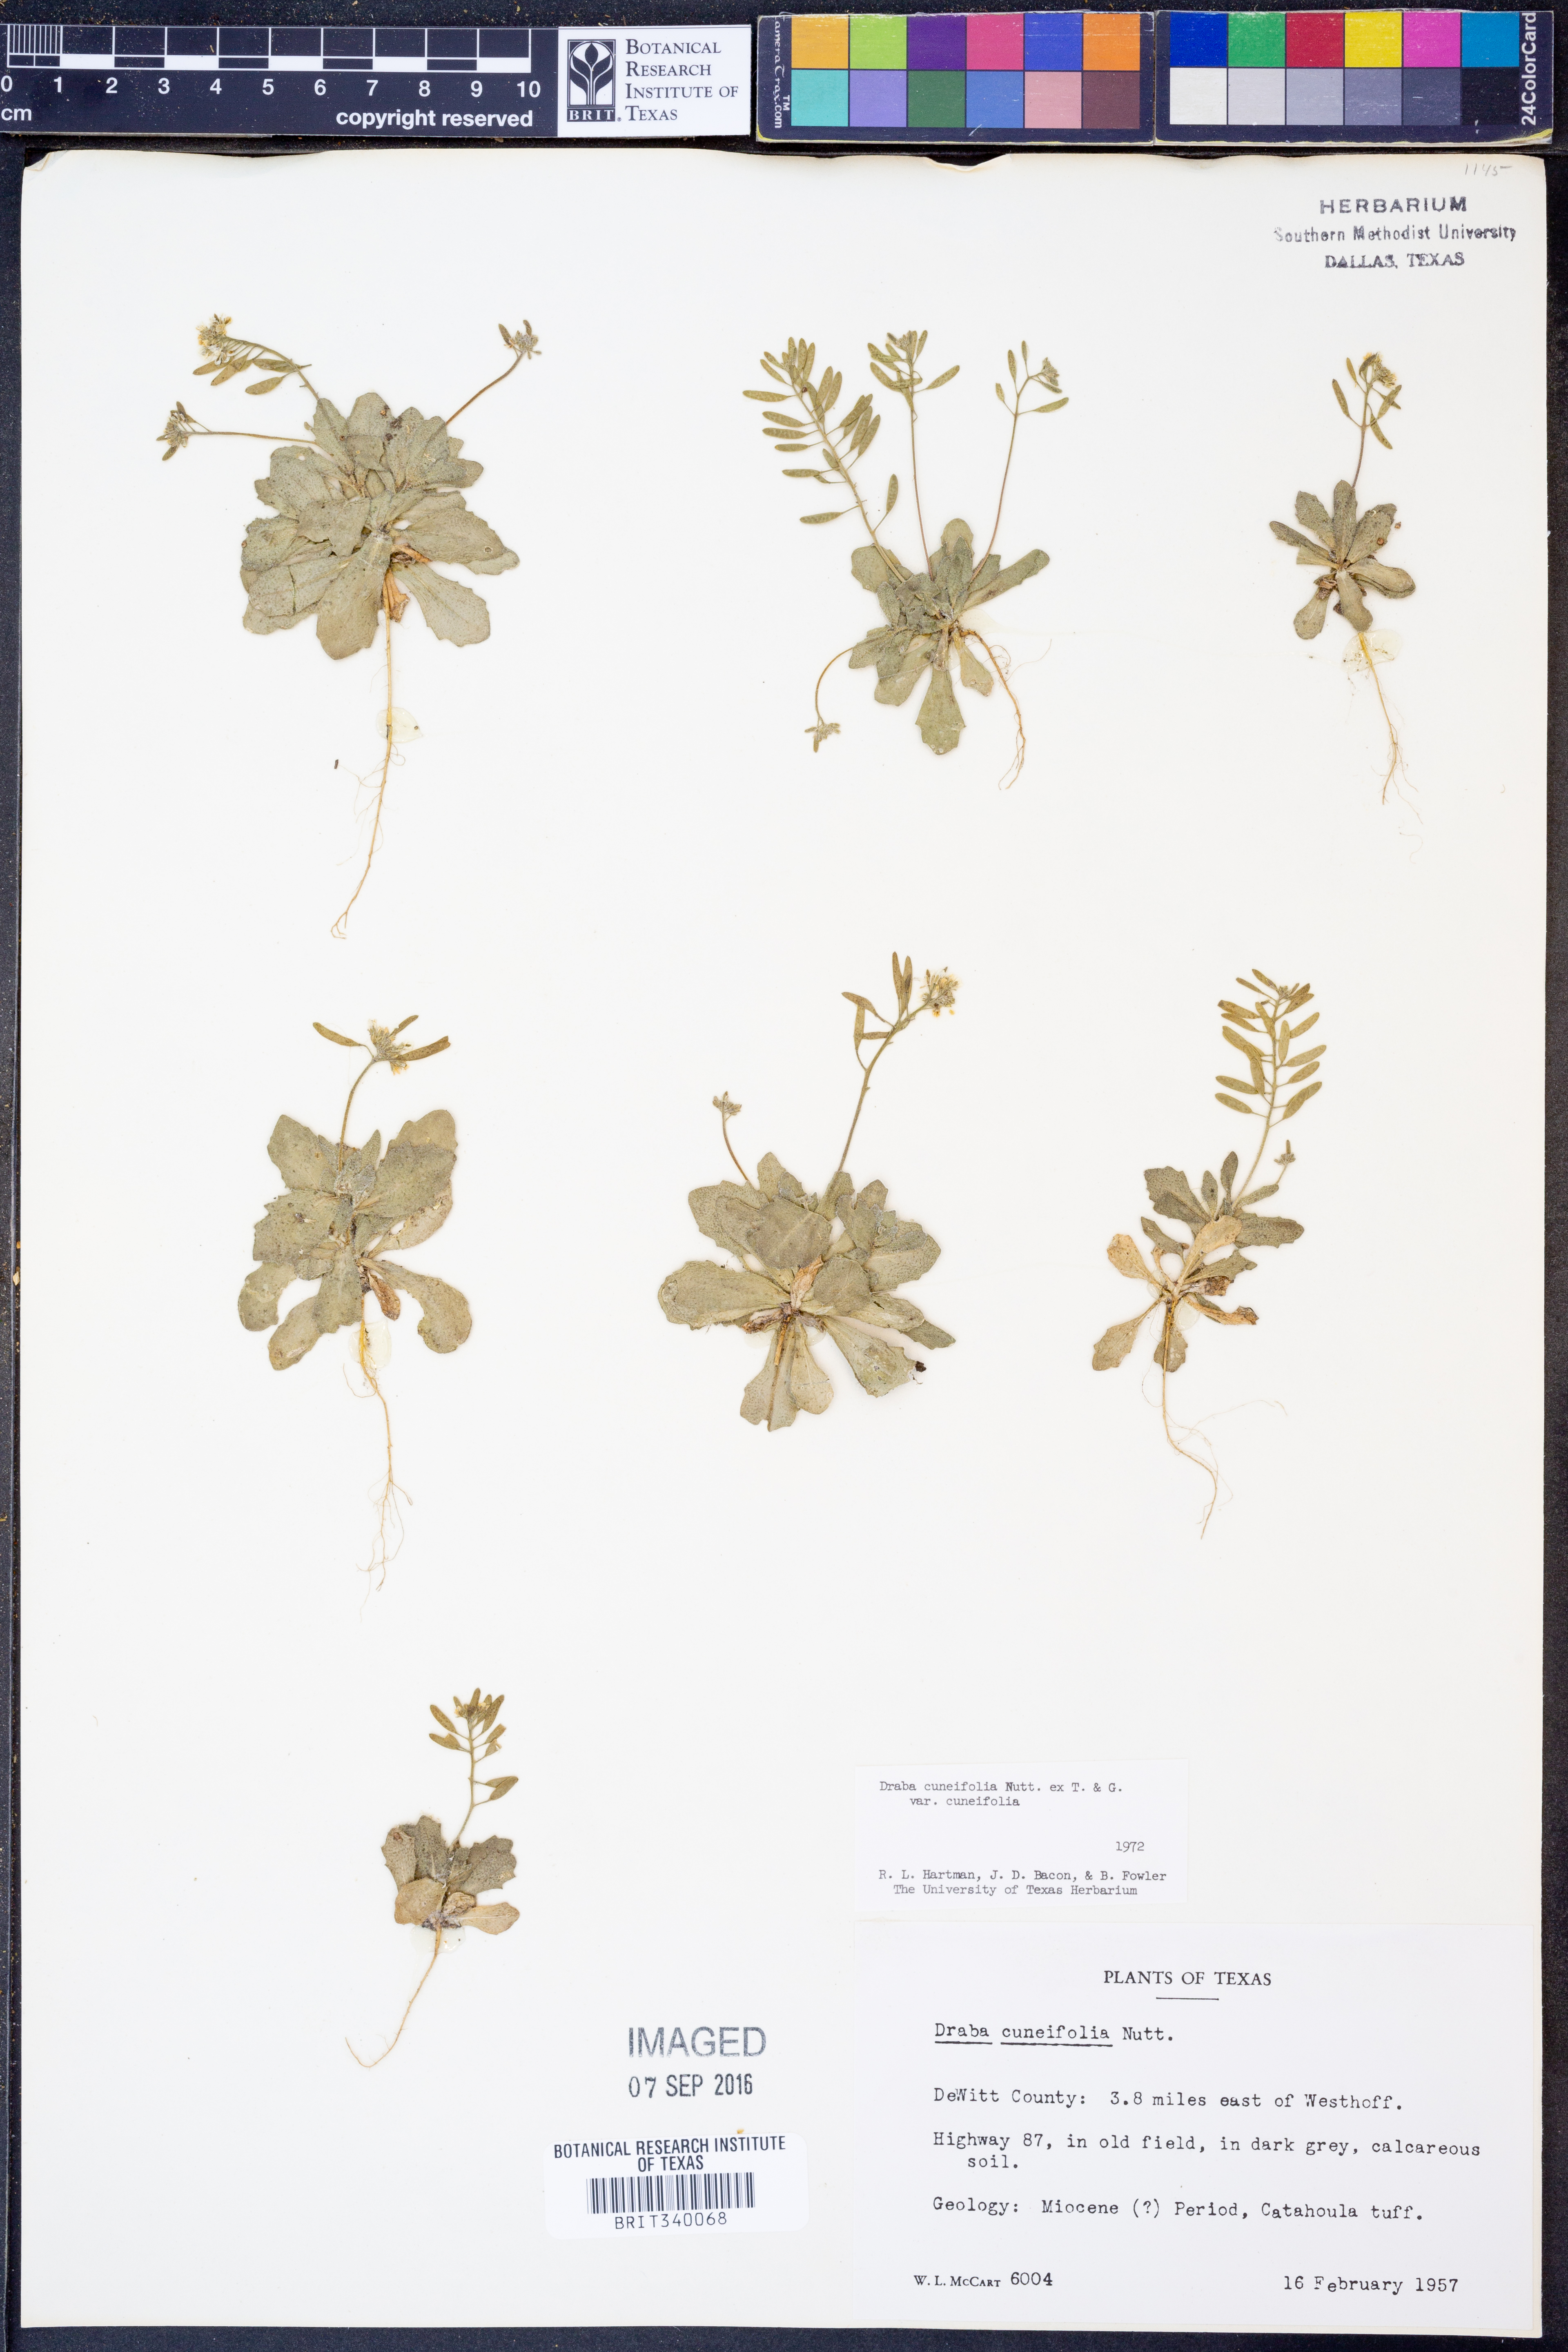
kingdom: Plantae
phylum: Tracheophyta
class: Magnoliopsida
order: Brassicales
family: Brassicaceae
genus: Tomostima
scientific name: Tomostima cuneifolia
